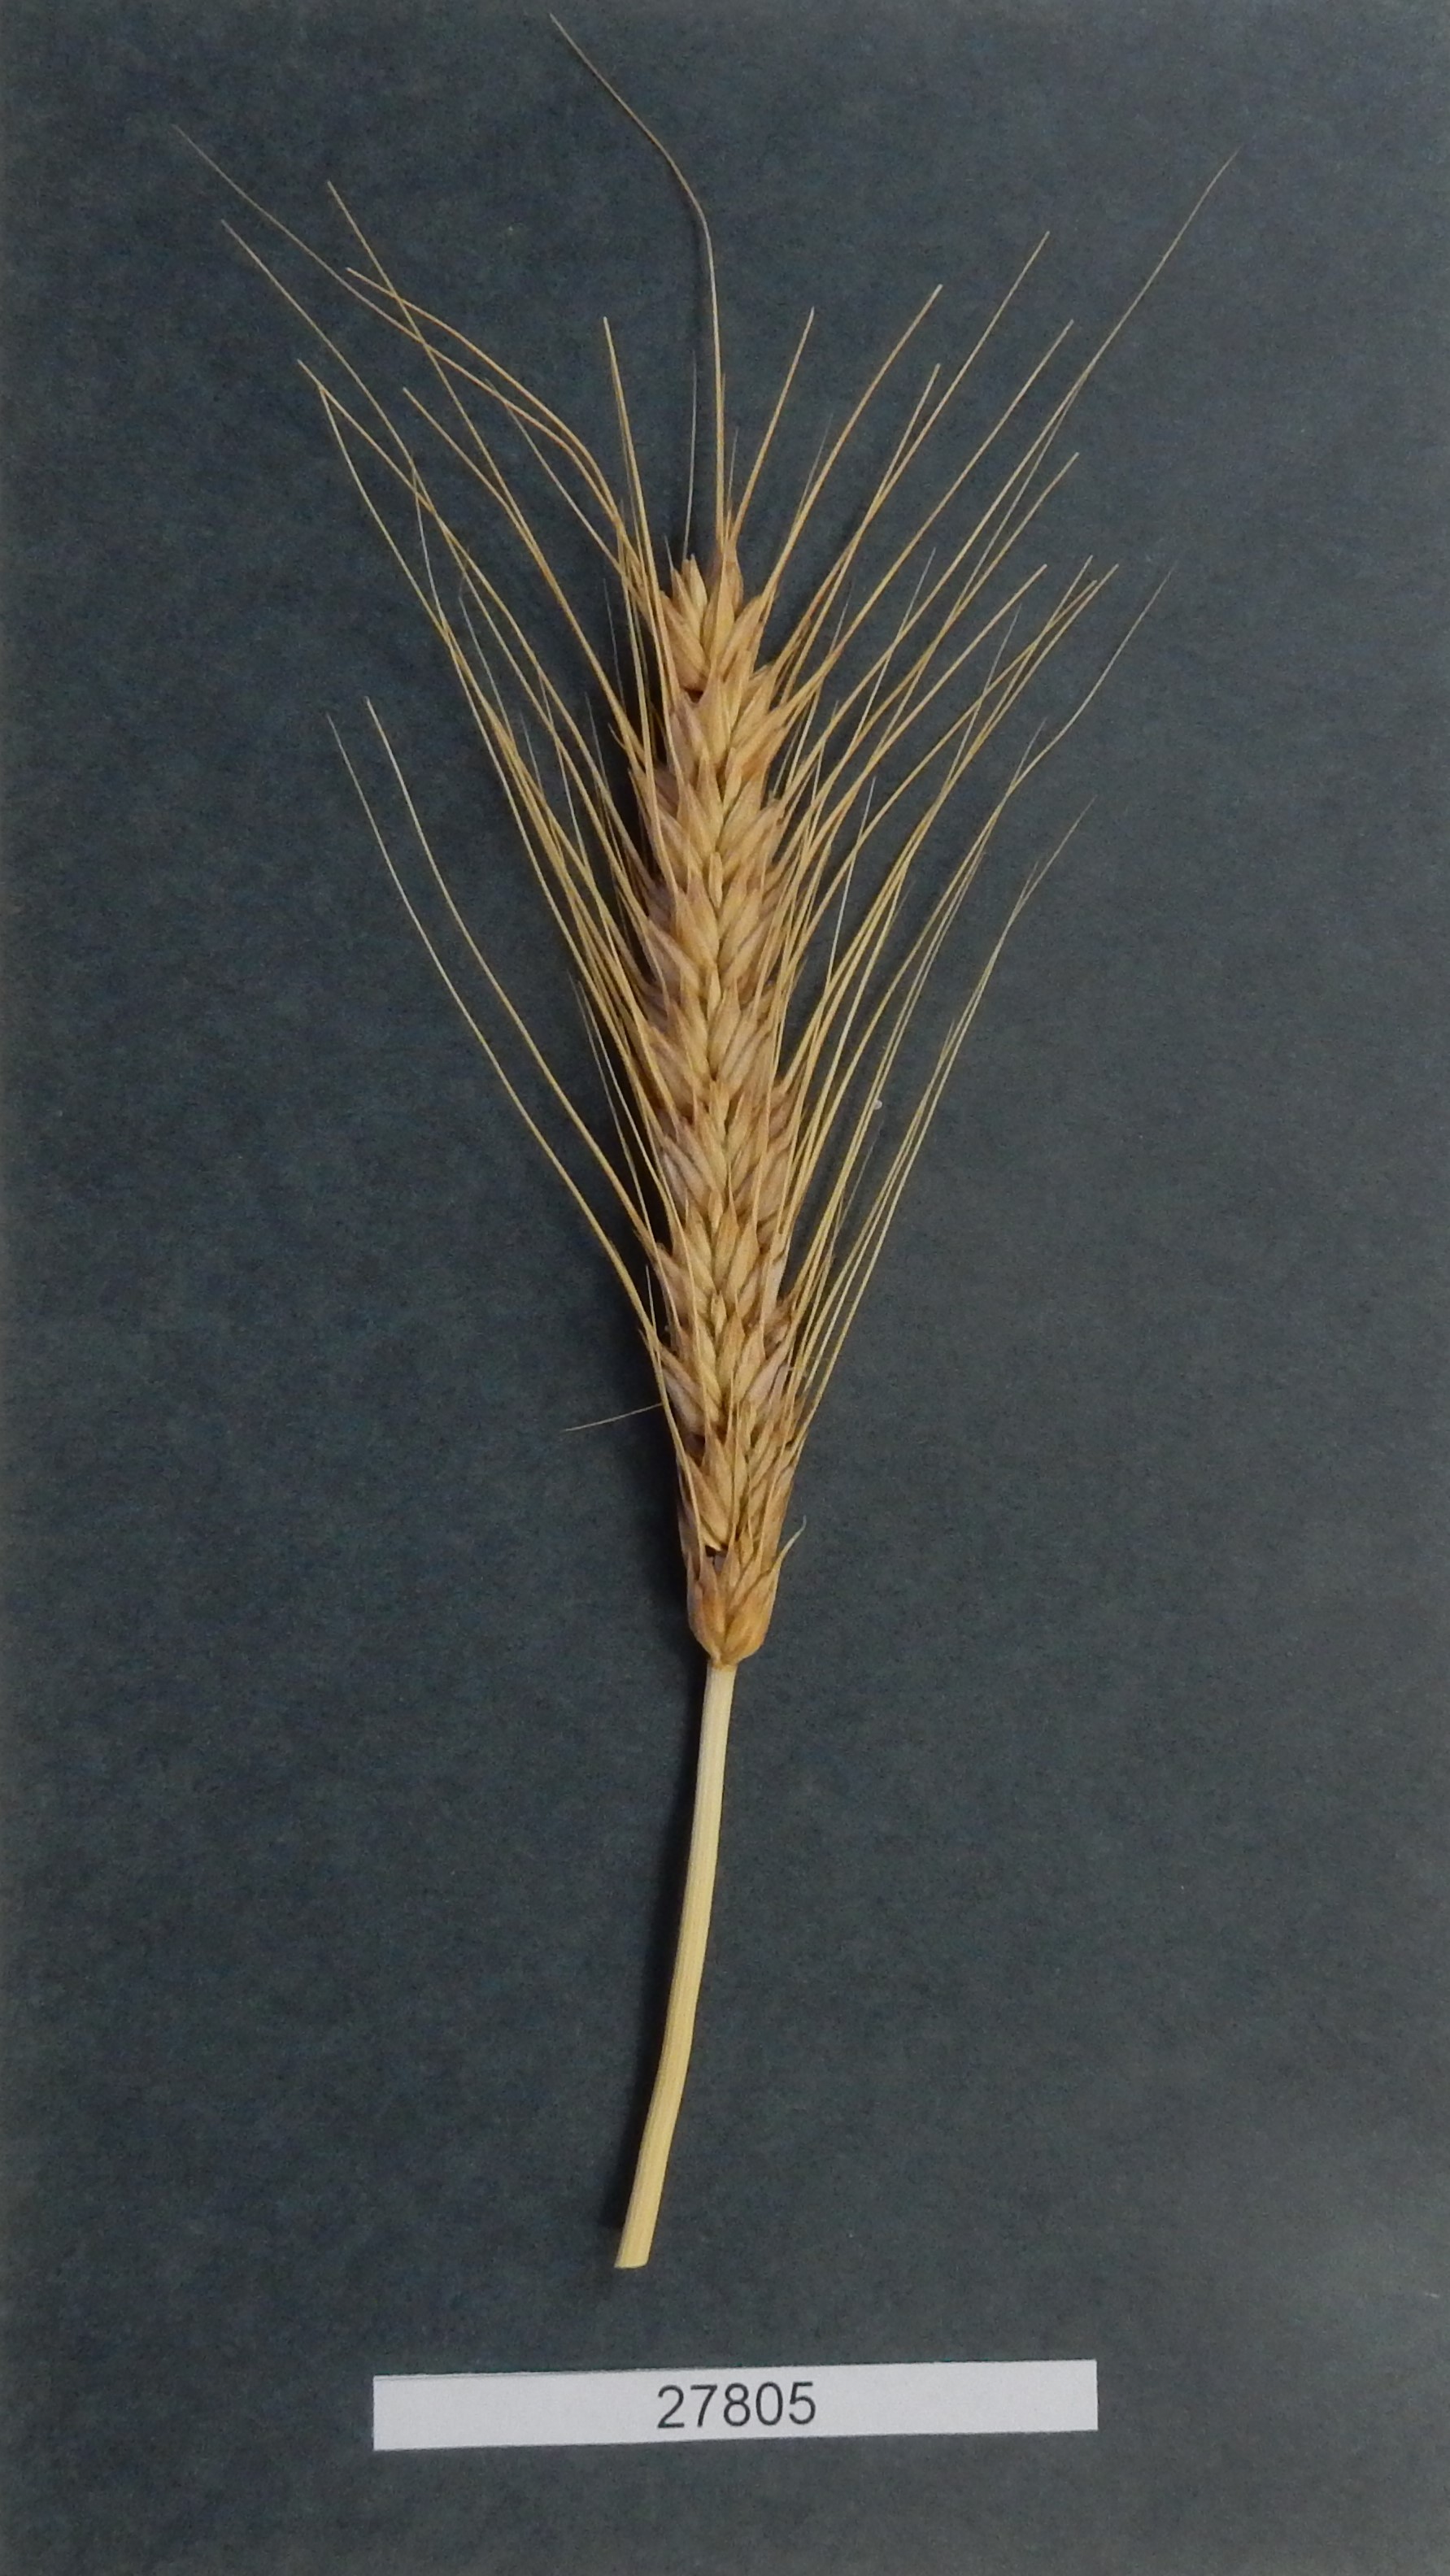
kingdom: Plantae
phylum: Tracheophyta
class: Liliopsida
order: Poales
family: Poaceae
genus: Triticum
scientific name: Triticum aestivum
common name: Common wheat
